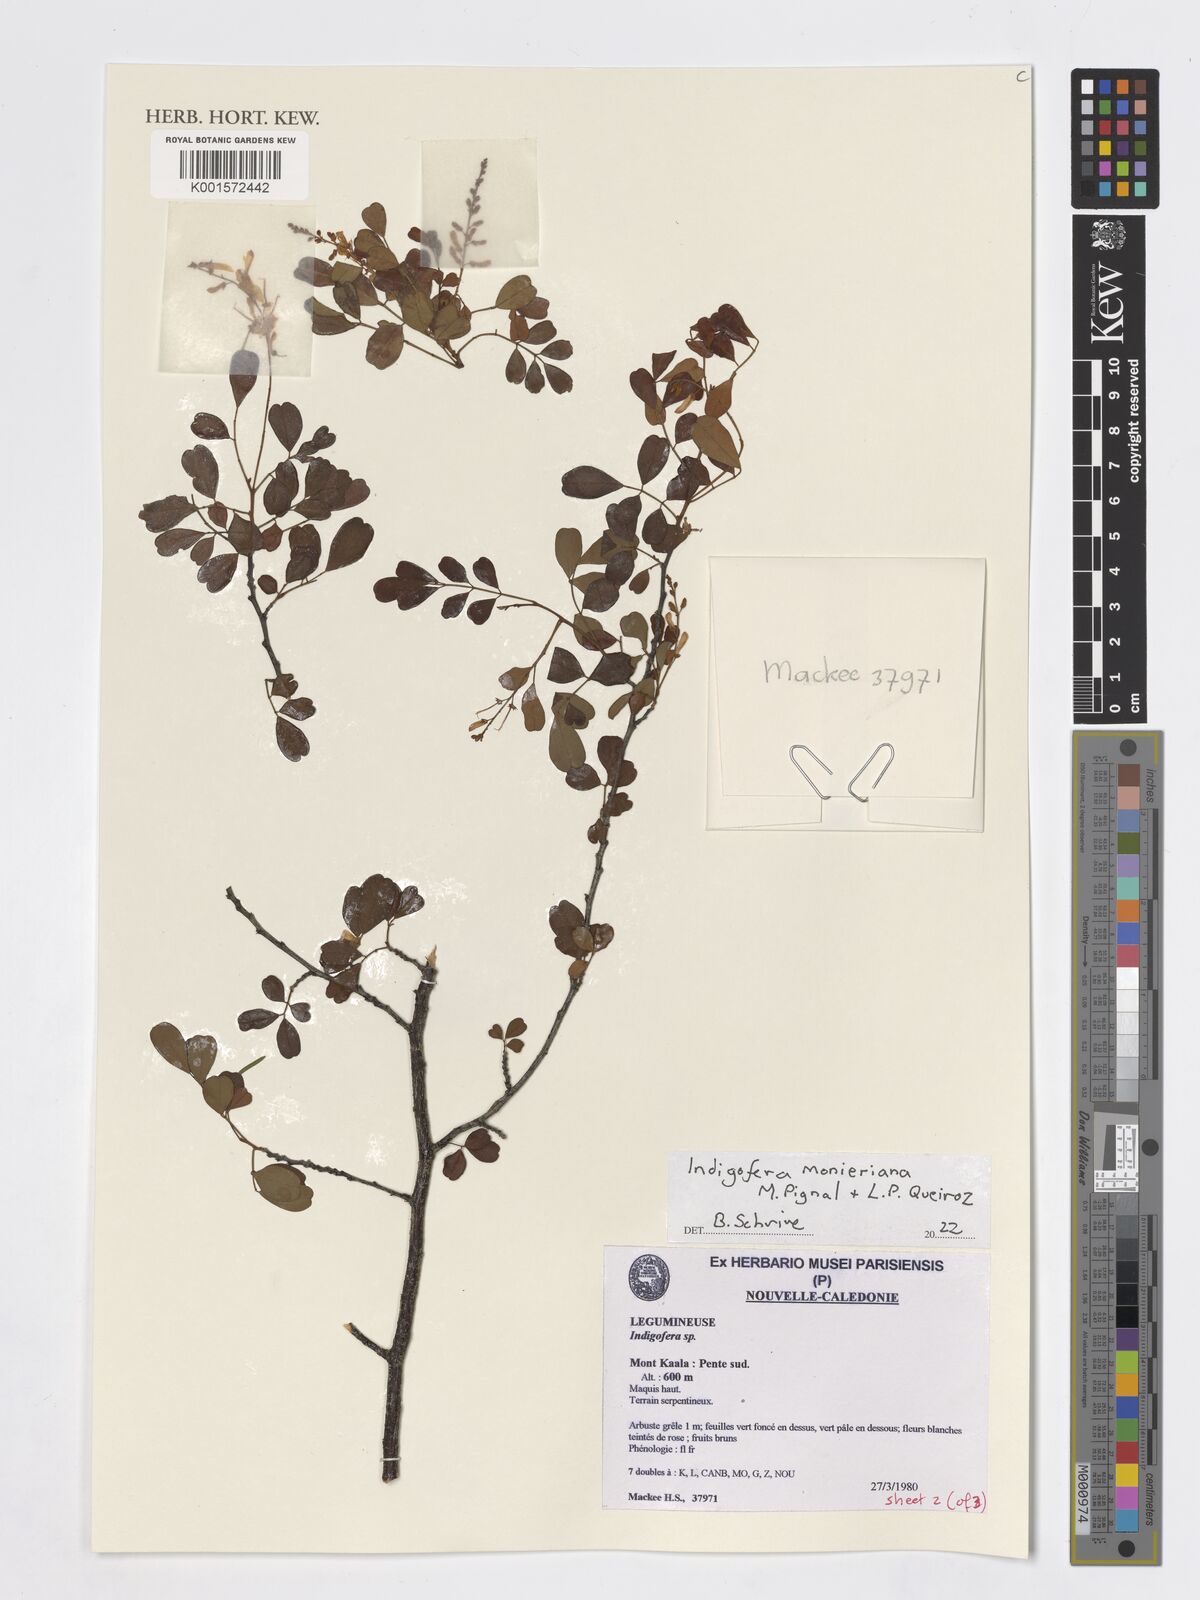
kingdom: Plantae
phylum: Tracheophyta
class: Magnoliopsida
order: Fabales
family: Fabaceae
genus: Indigofera
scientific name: Indigofera monieriana
